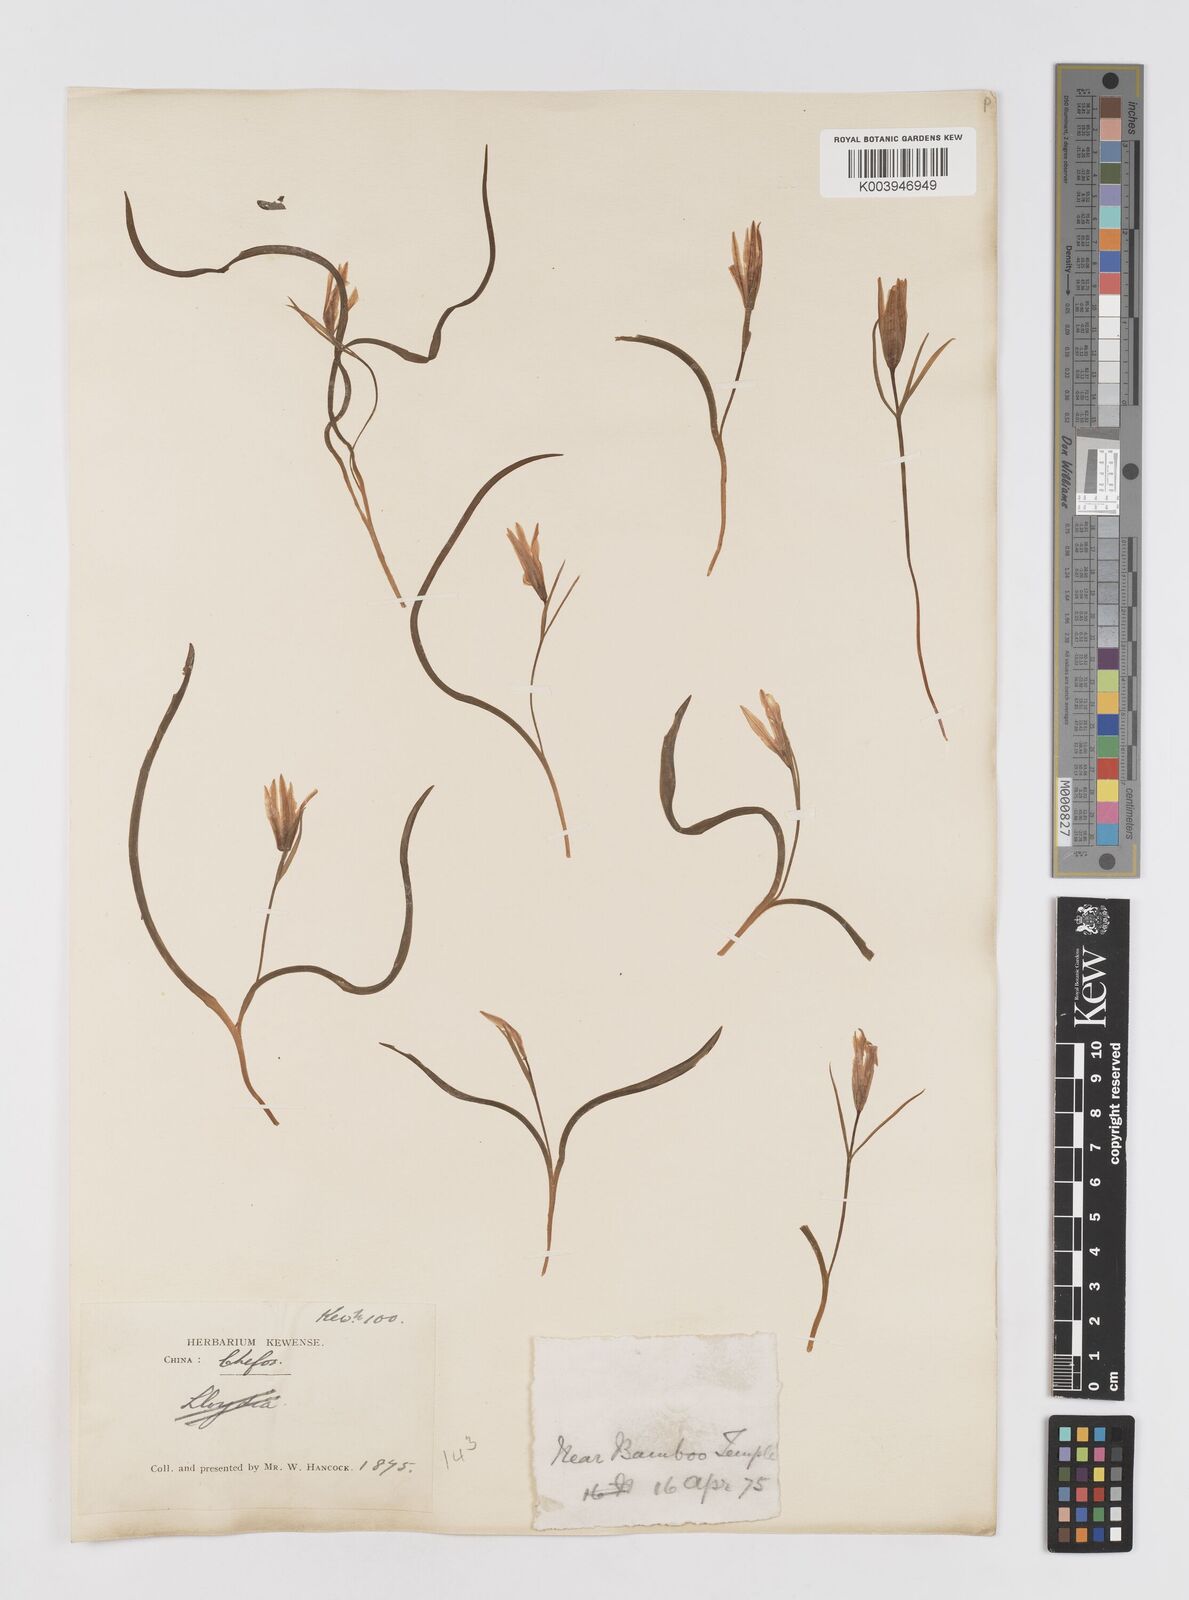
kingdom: Plantae
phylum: Tracheophyta
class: Liliopsida
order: Liliales
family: Liliaceae
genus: Amana
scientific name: Amana edulis
